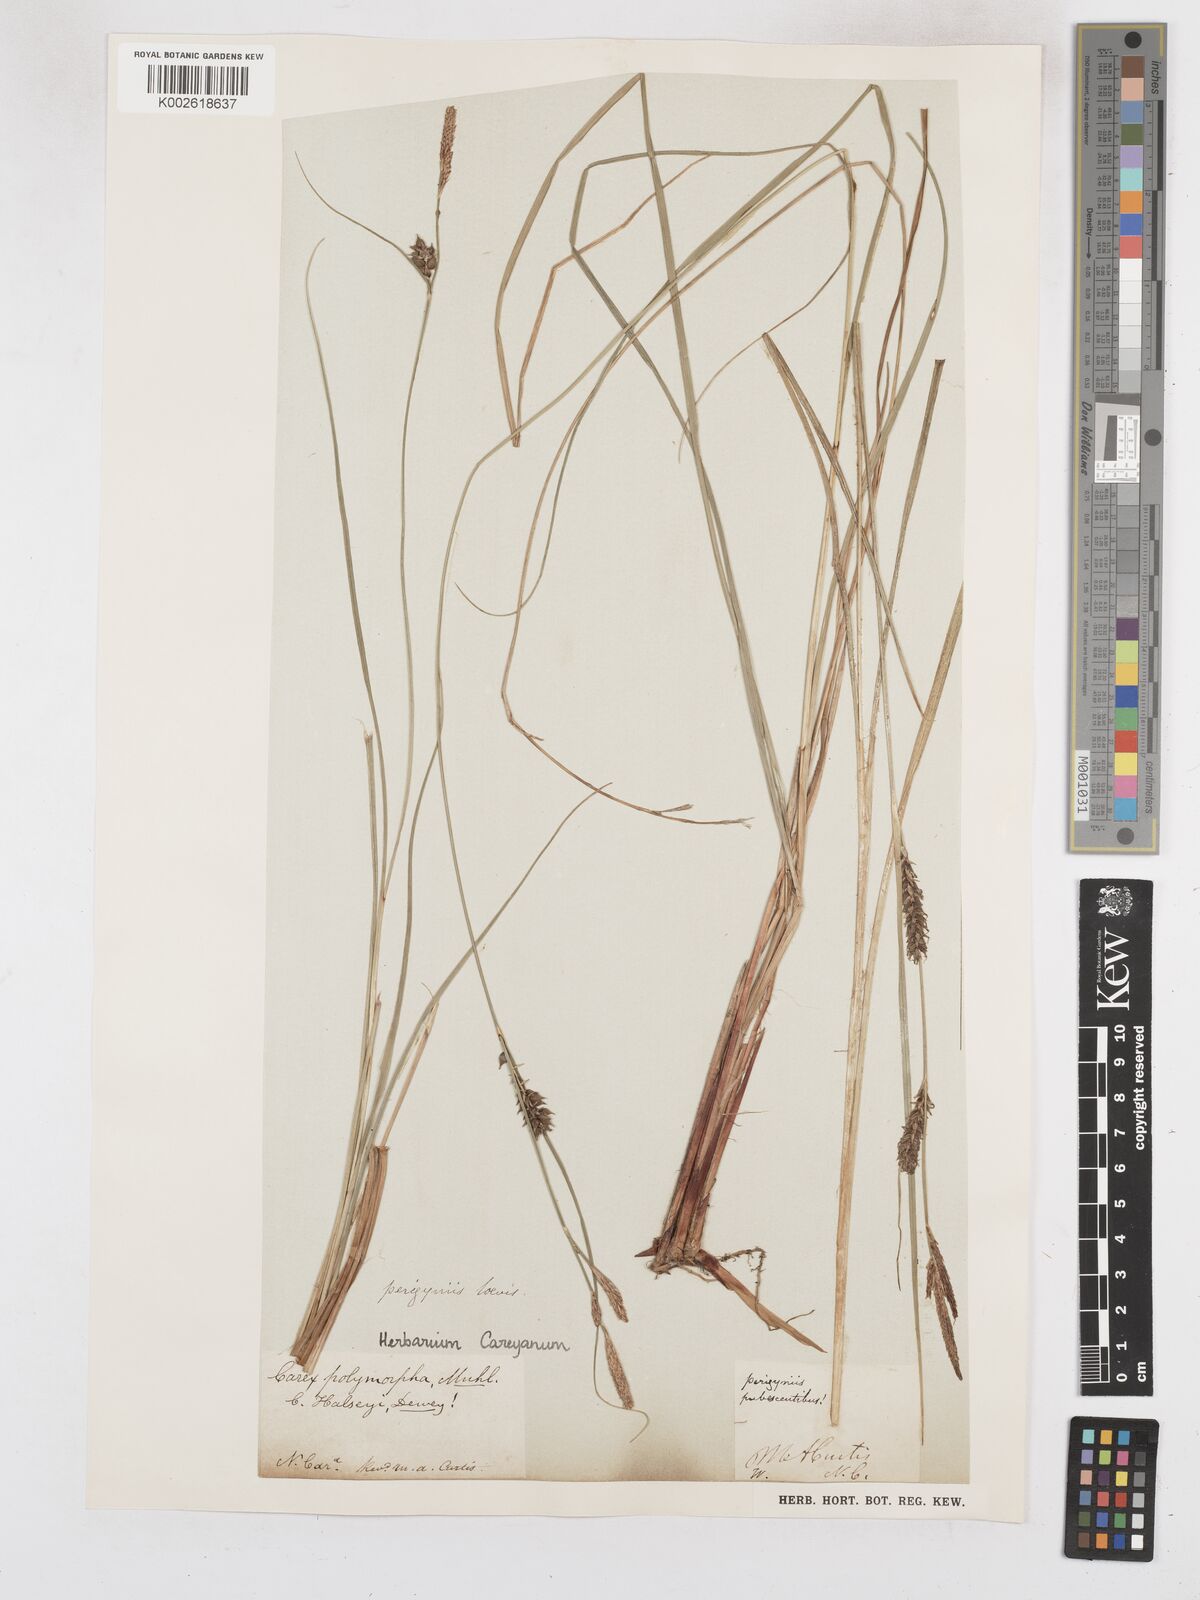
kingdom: Plantae
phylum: Tracheophyta
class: Liliopsida
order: Poales
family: Cyperaceae
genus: Carex
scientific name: Carex polymorpha
